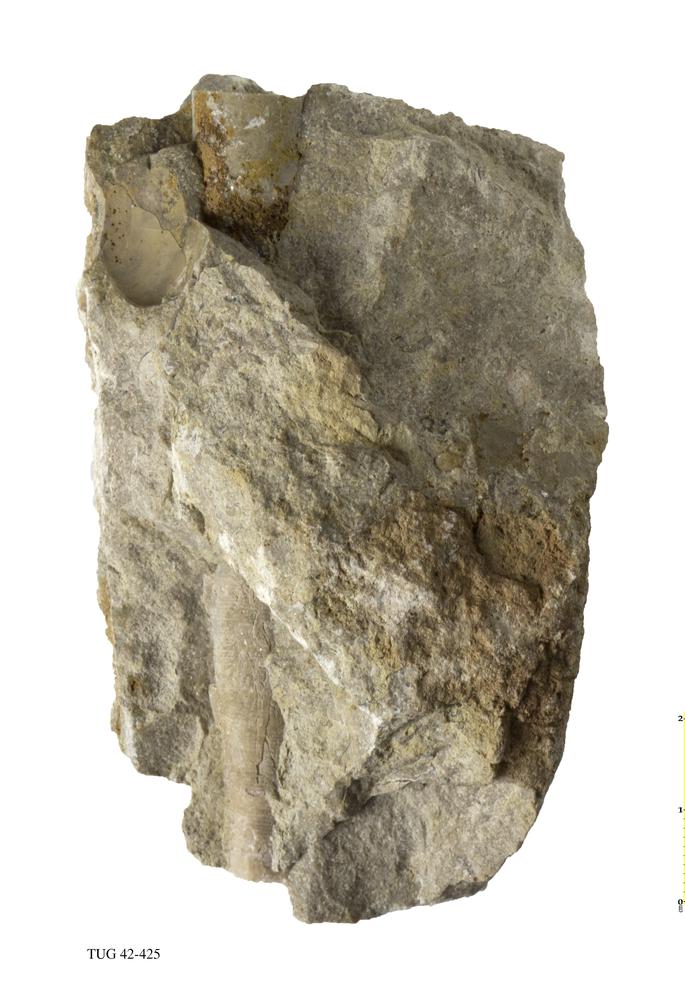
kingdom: Animalia
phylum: Mollusca
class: Cephalopoda
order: Orthocerida
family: Orthoceratidae
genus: Orthoceras
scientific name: Orthoceras
